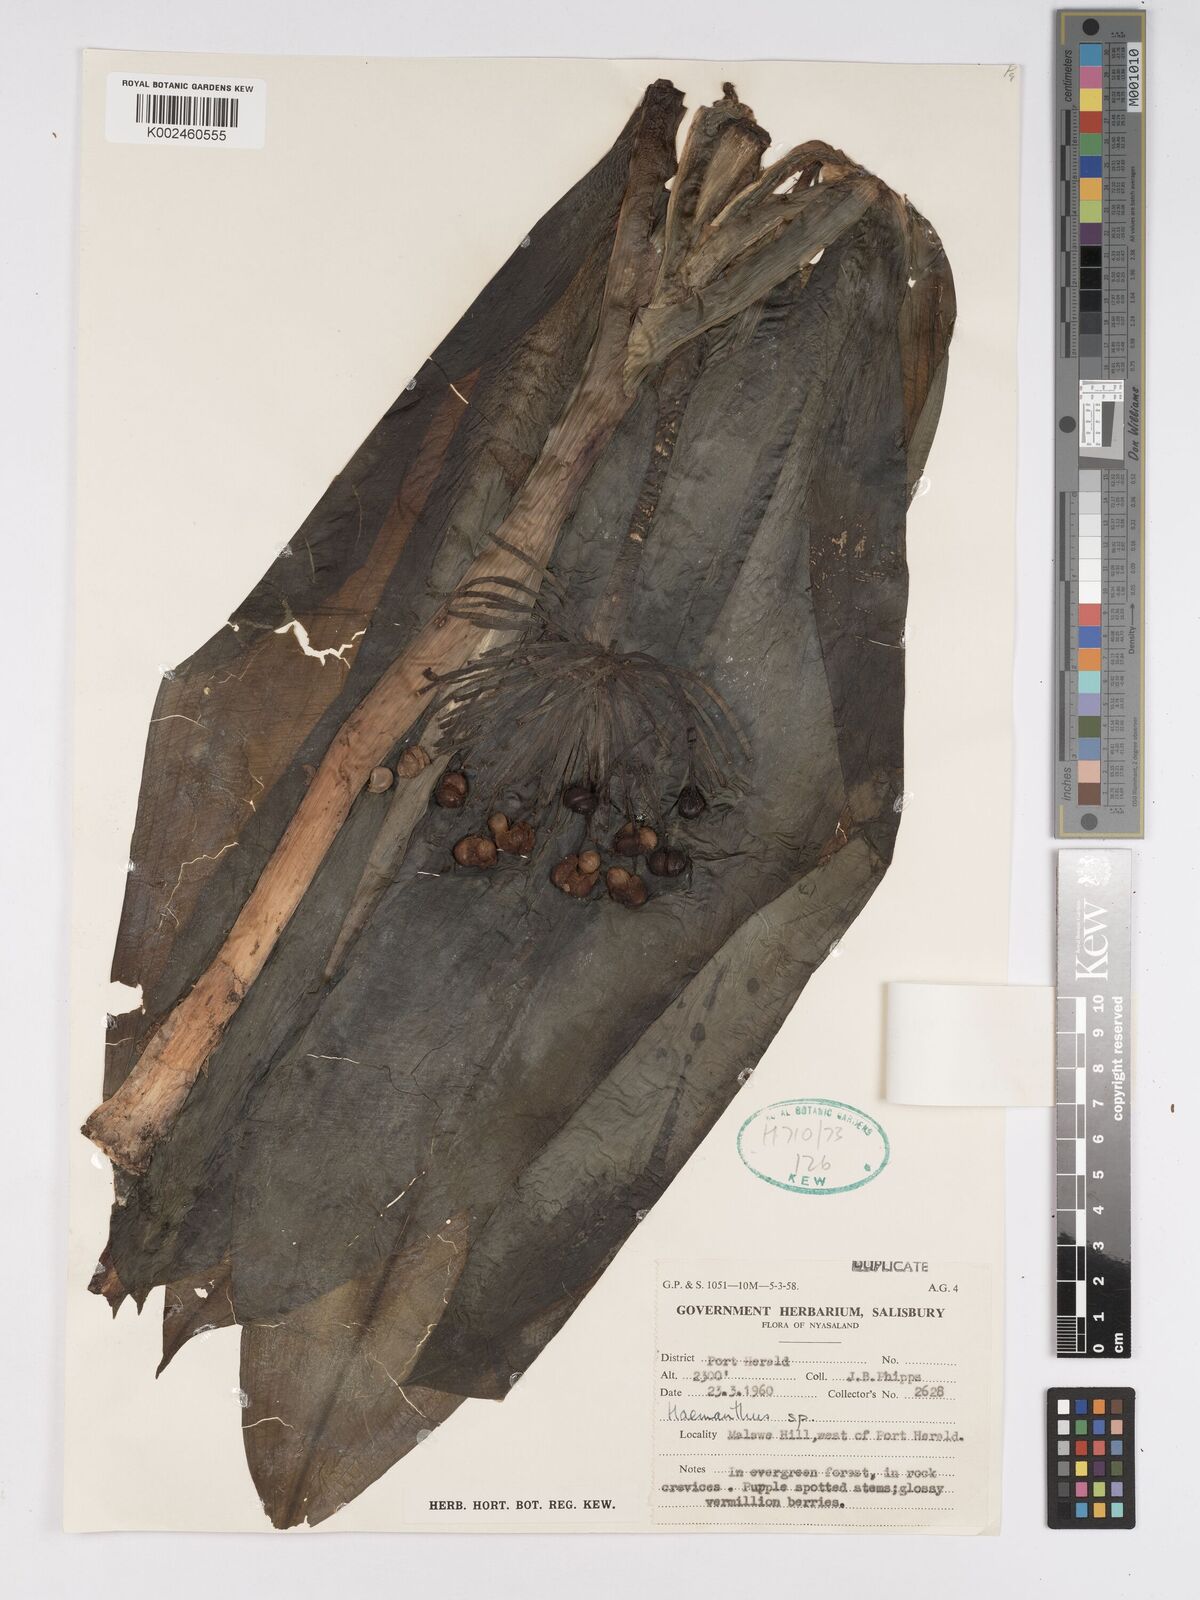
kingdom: Plantae
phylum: Tracheophyta
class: Liliopsida
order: Asparagales
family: Amaryllidaceae
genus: Scadoxus
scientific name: Scadoxus multiflorus
